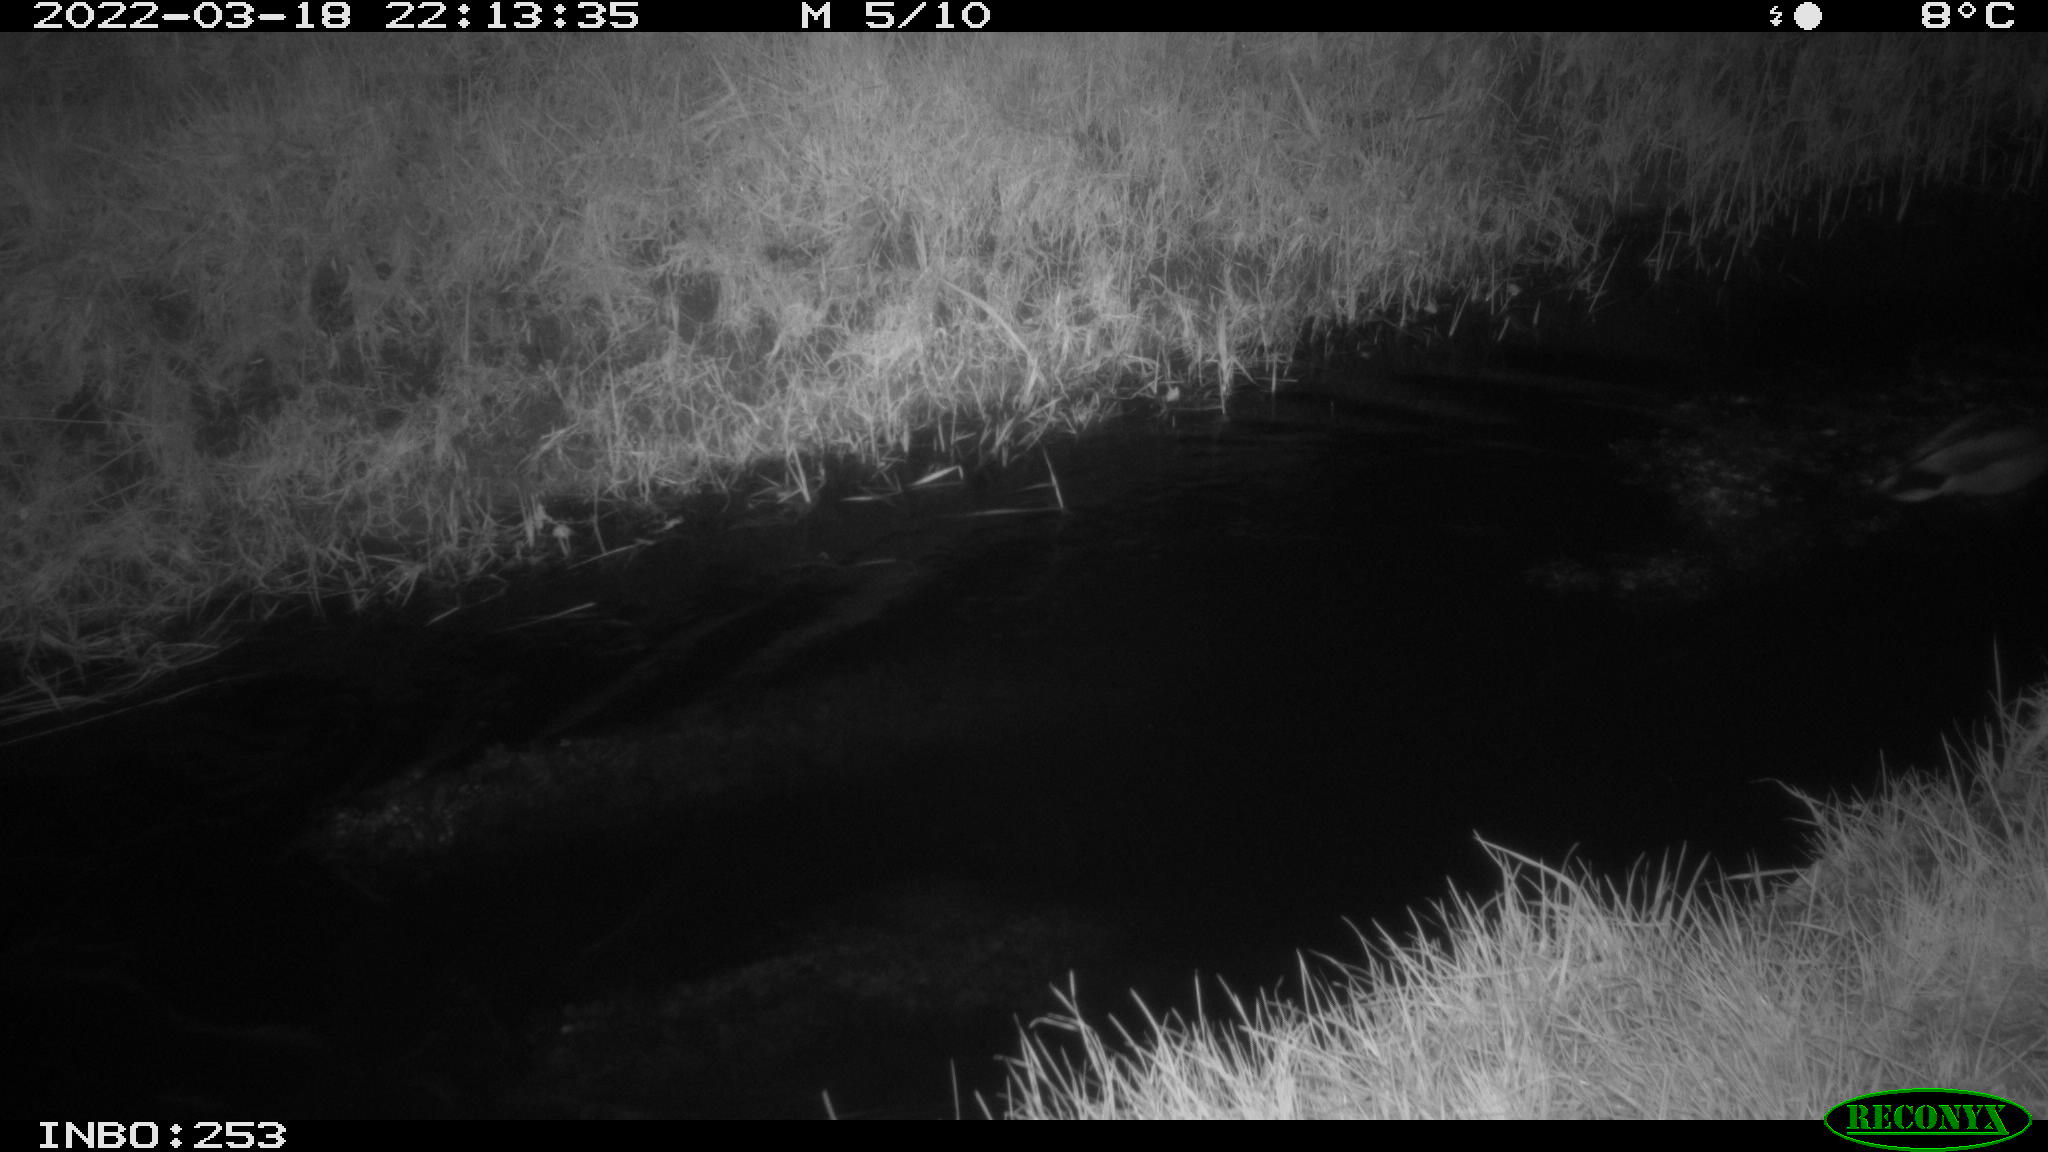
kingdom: Animalia
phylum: Chordata
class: Aves
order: Anseriformes
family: Anatidae
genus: Anas
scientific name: Anas platyrhynchos
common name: Mallard
